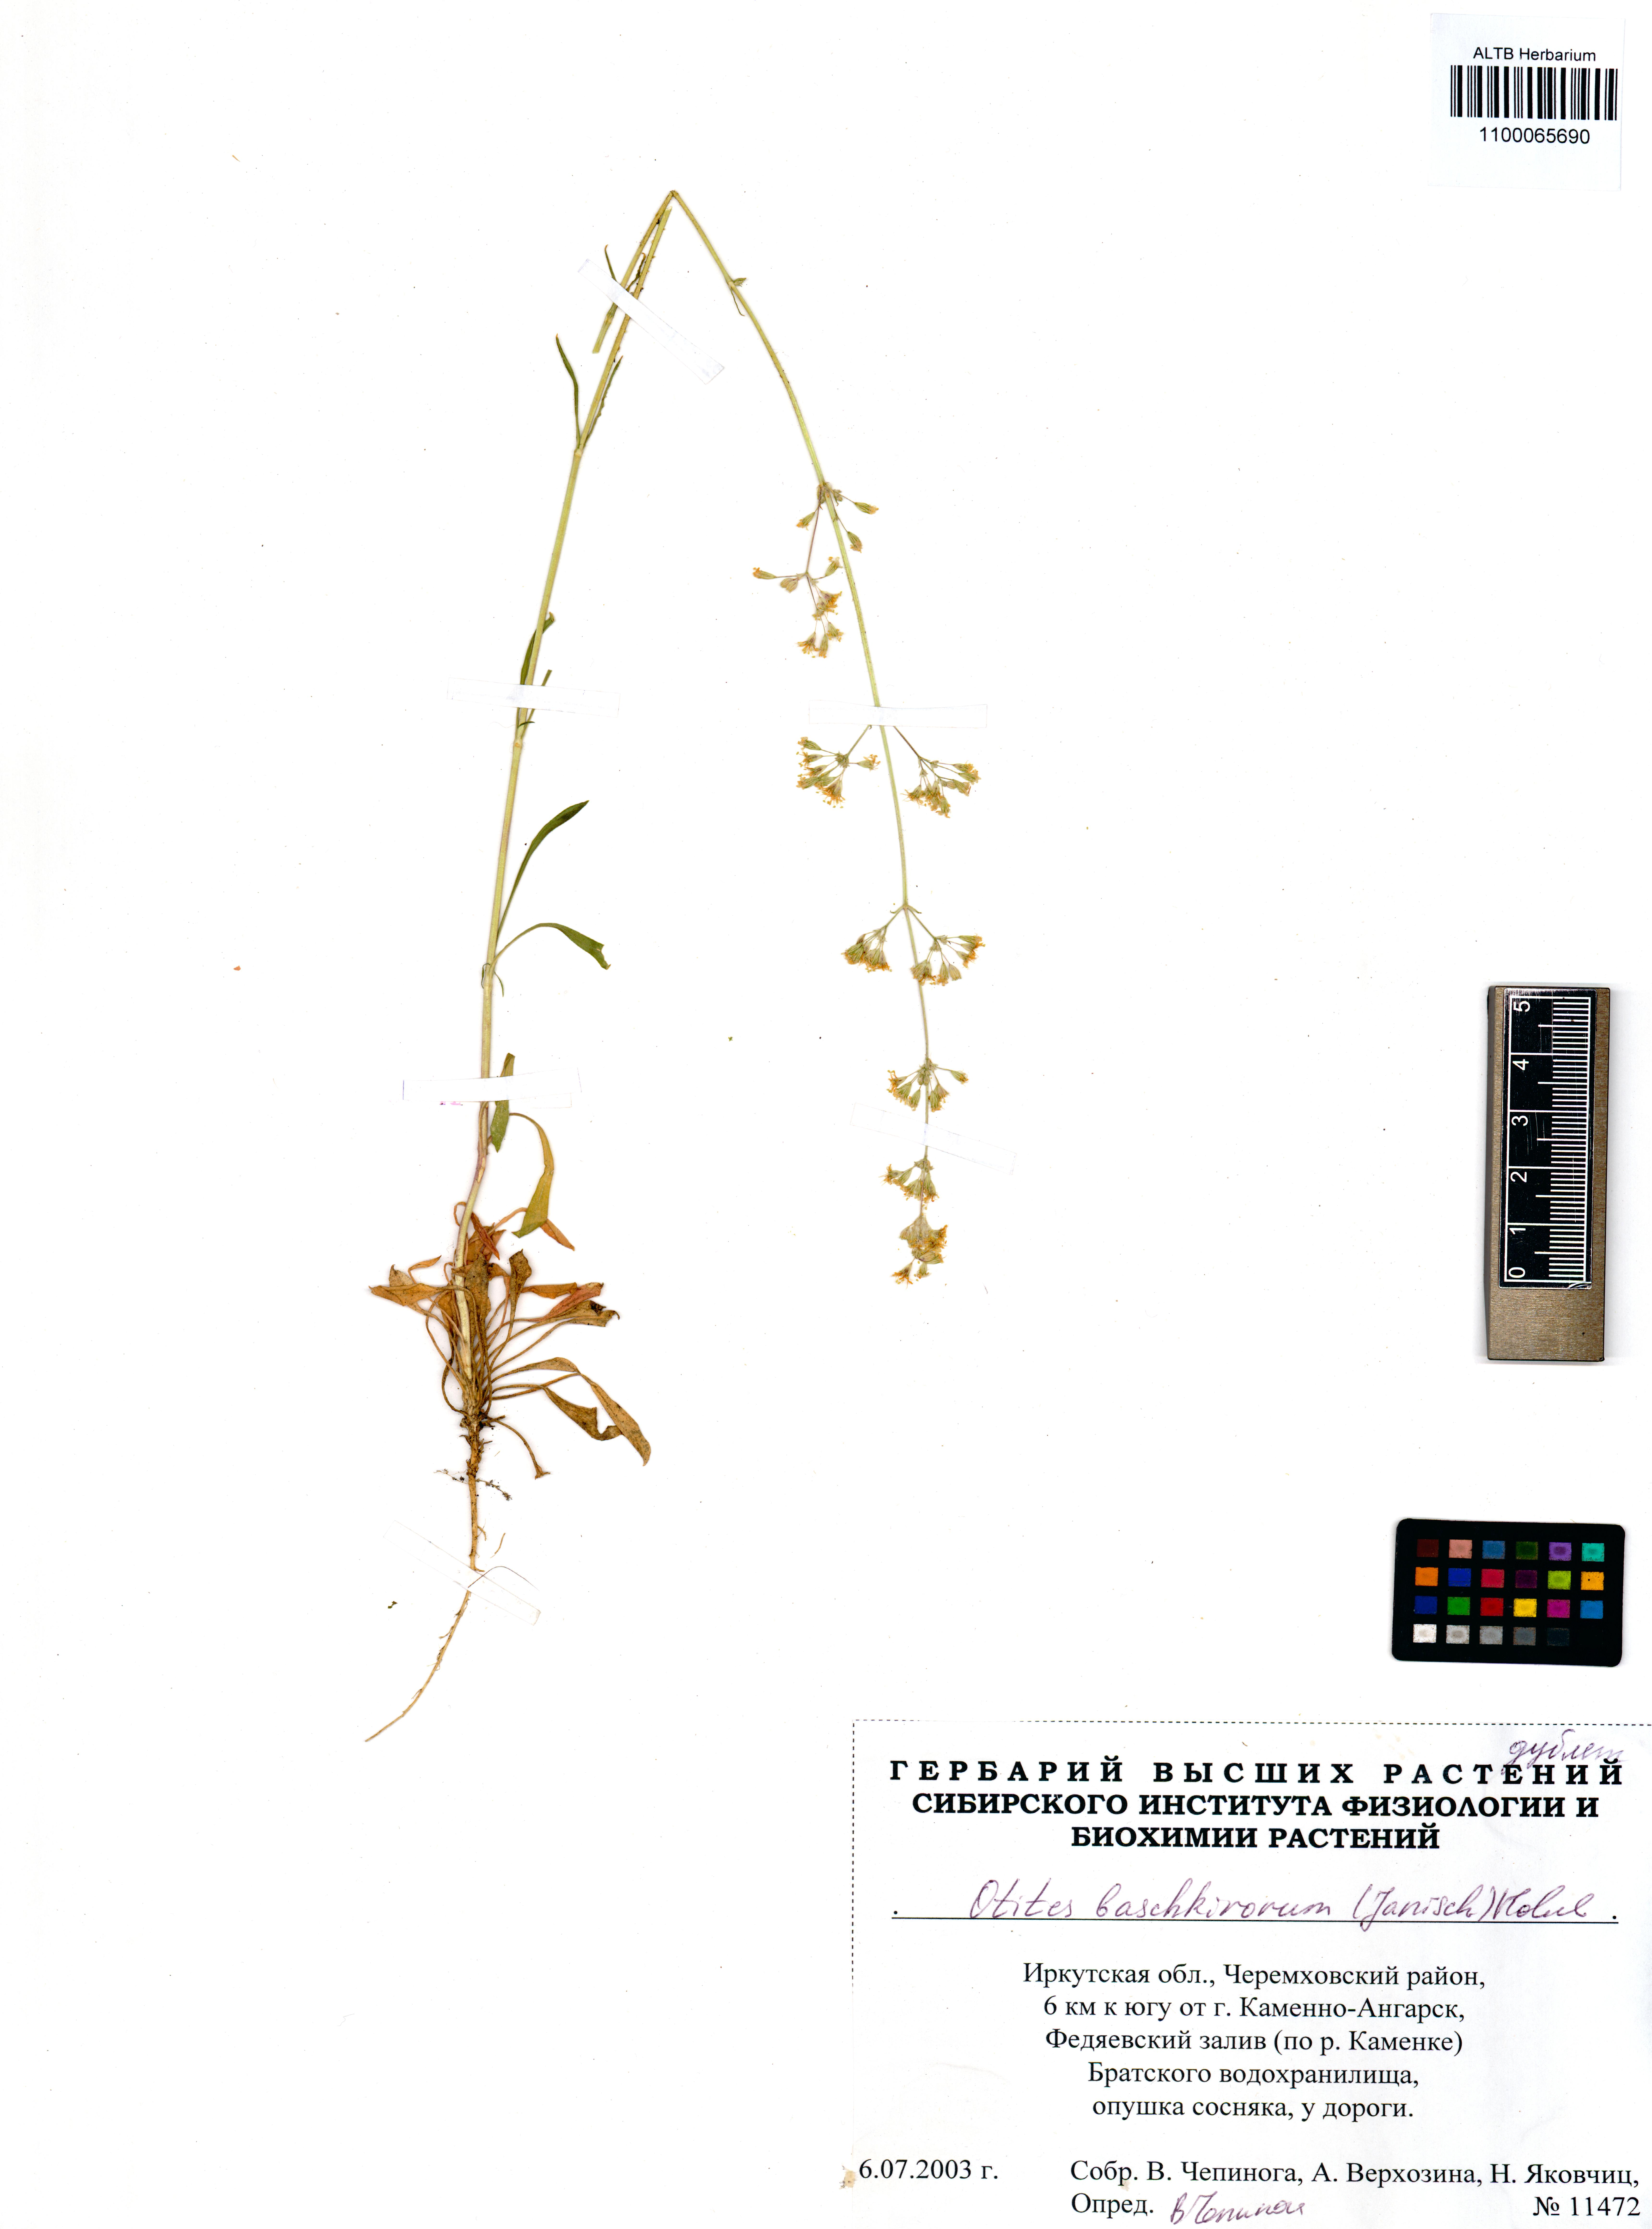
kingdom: Plantae
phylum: Tracheophyta
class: Magnoliopsida
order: Caryophyllales
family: Caryophyllaceae
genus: Silene
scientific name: Silene baschkirorum
